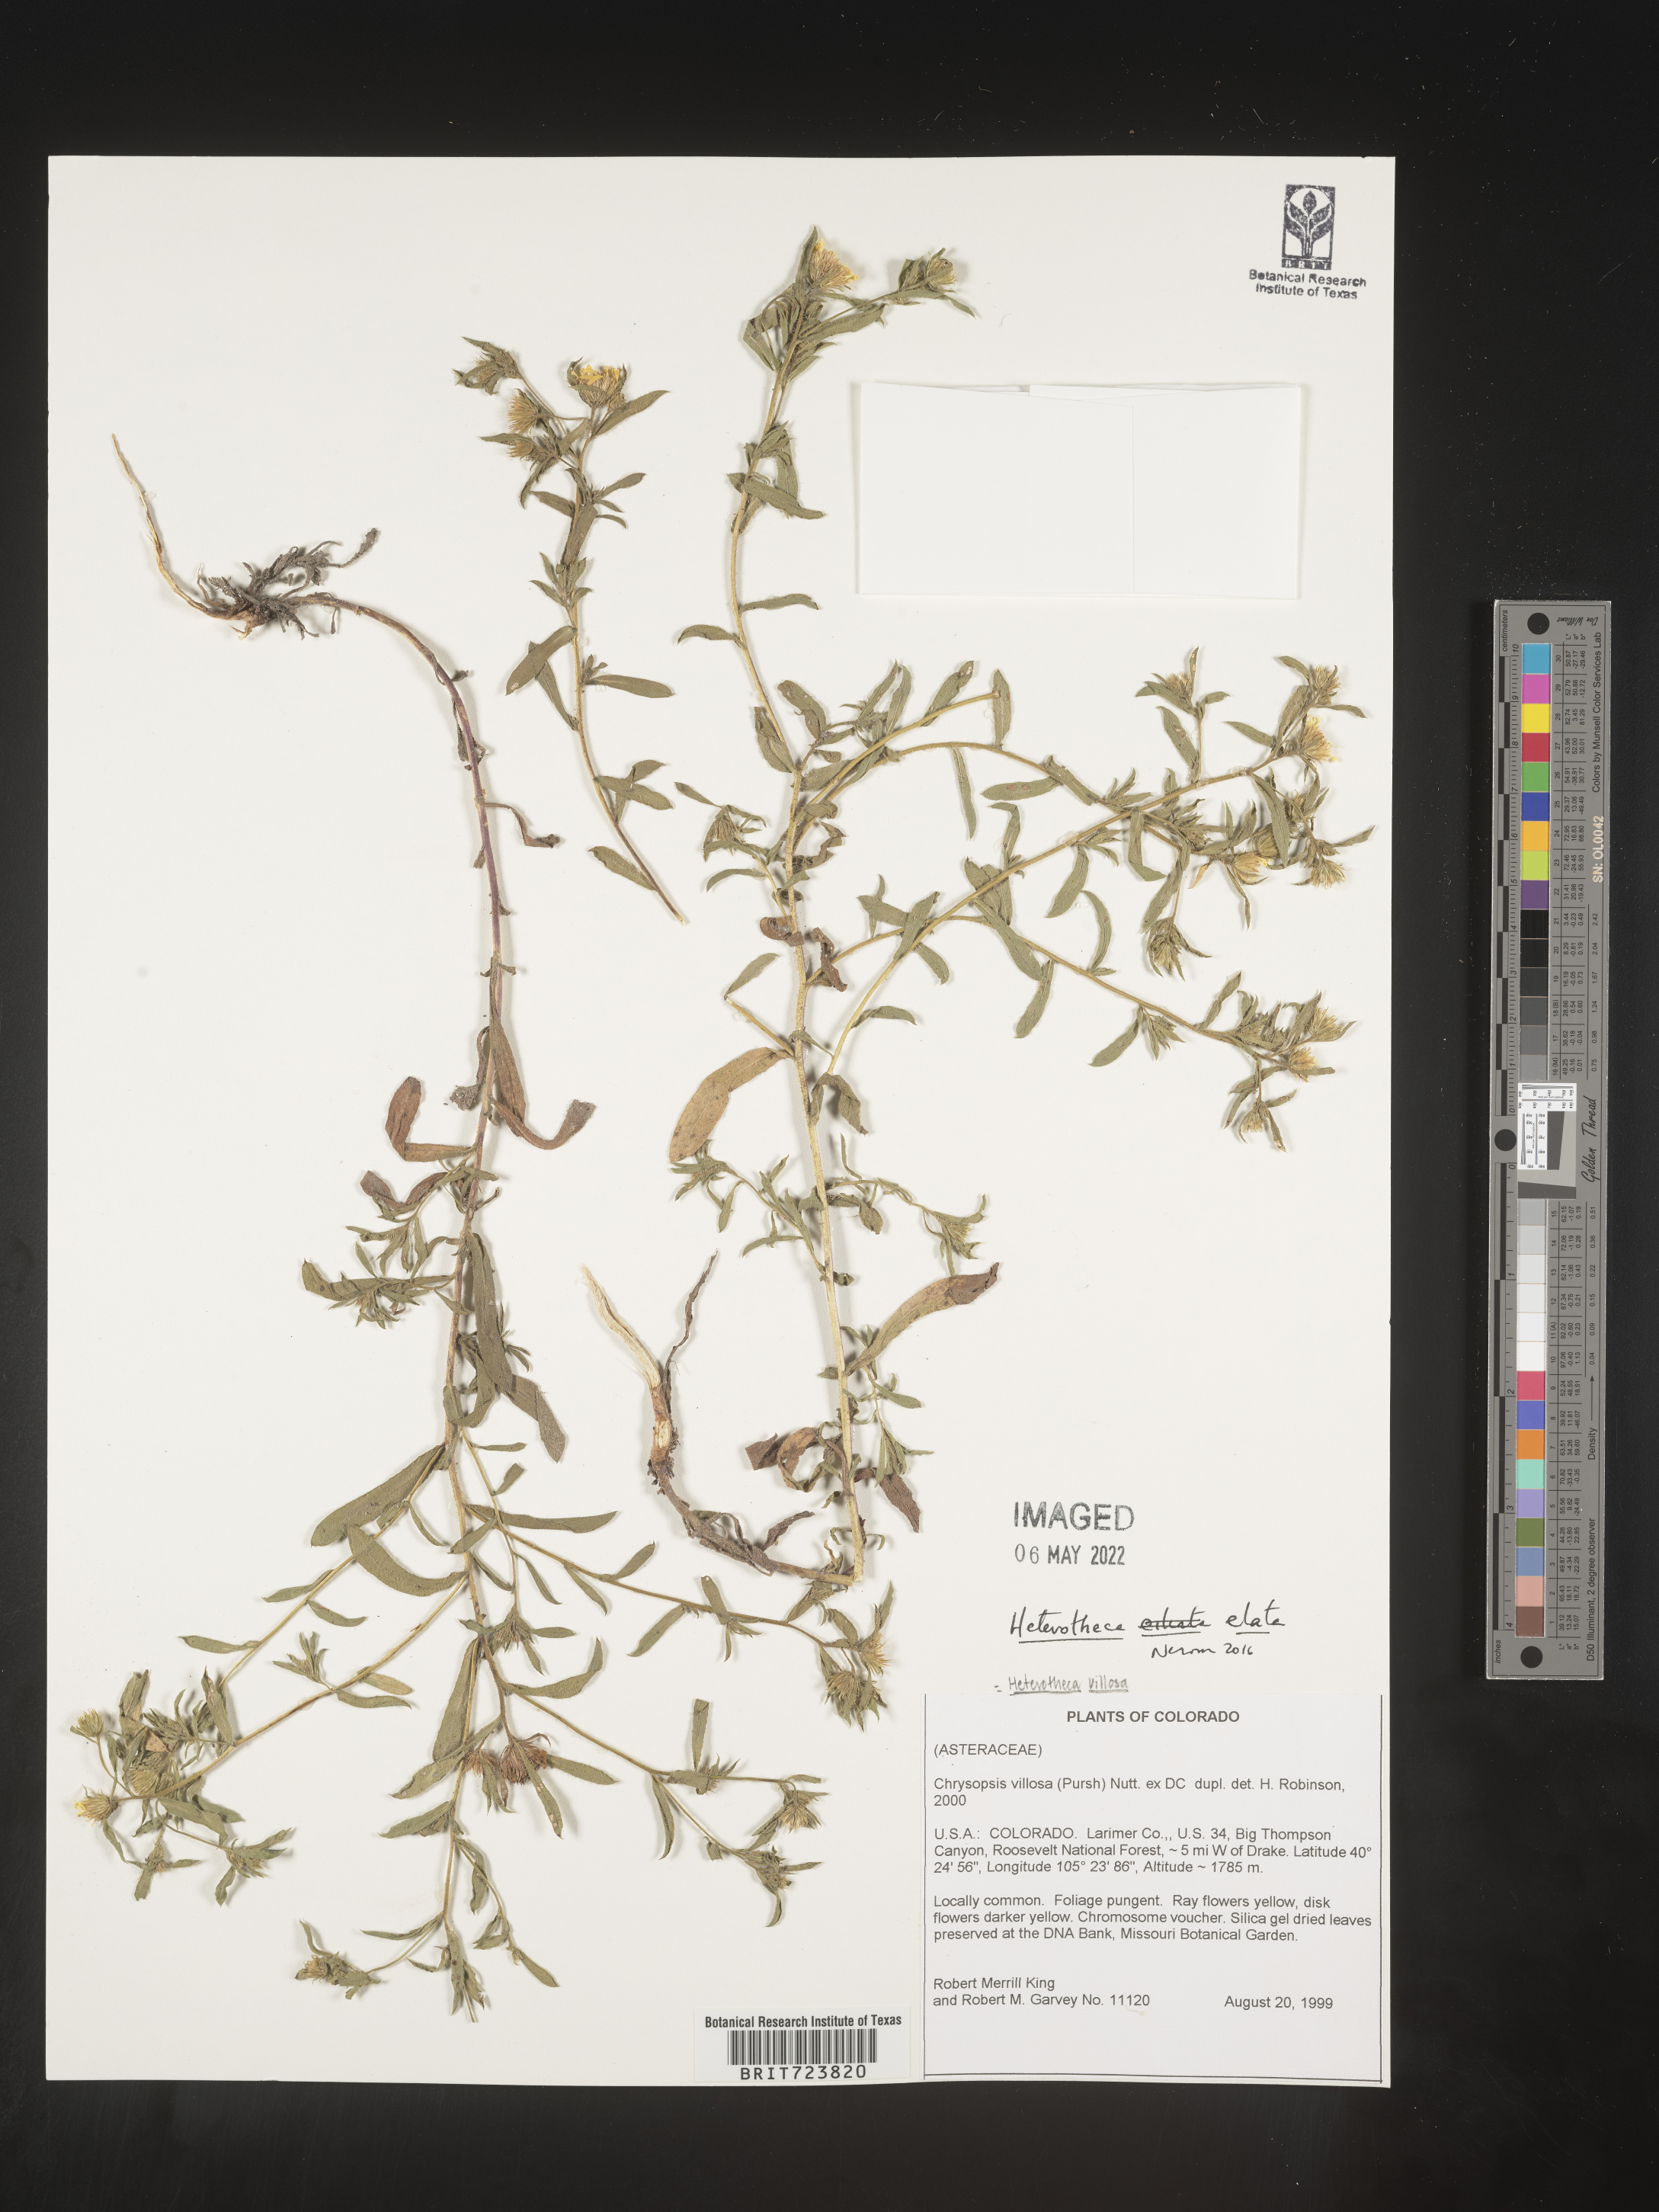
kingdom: Plantae
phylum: Tracheophyta
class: Magnoliopsida
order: Asterales
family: Asteraceae
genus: Heterotheca
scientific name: Heterotheca hirsuta
